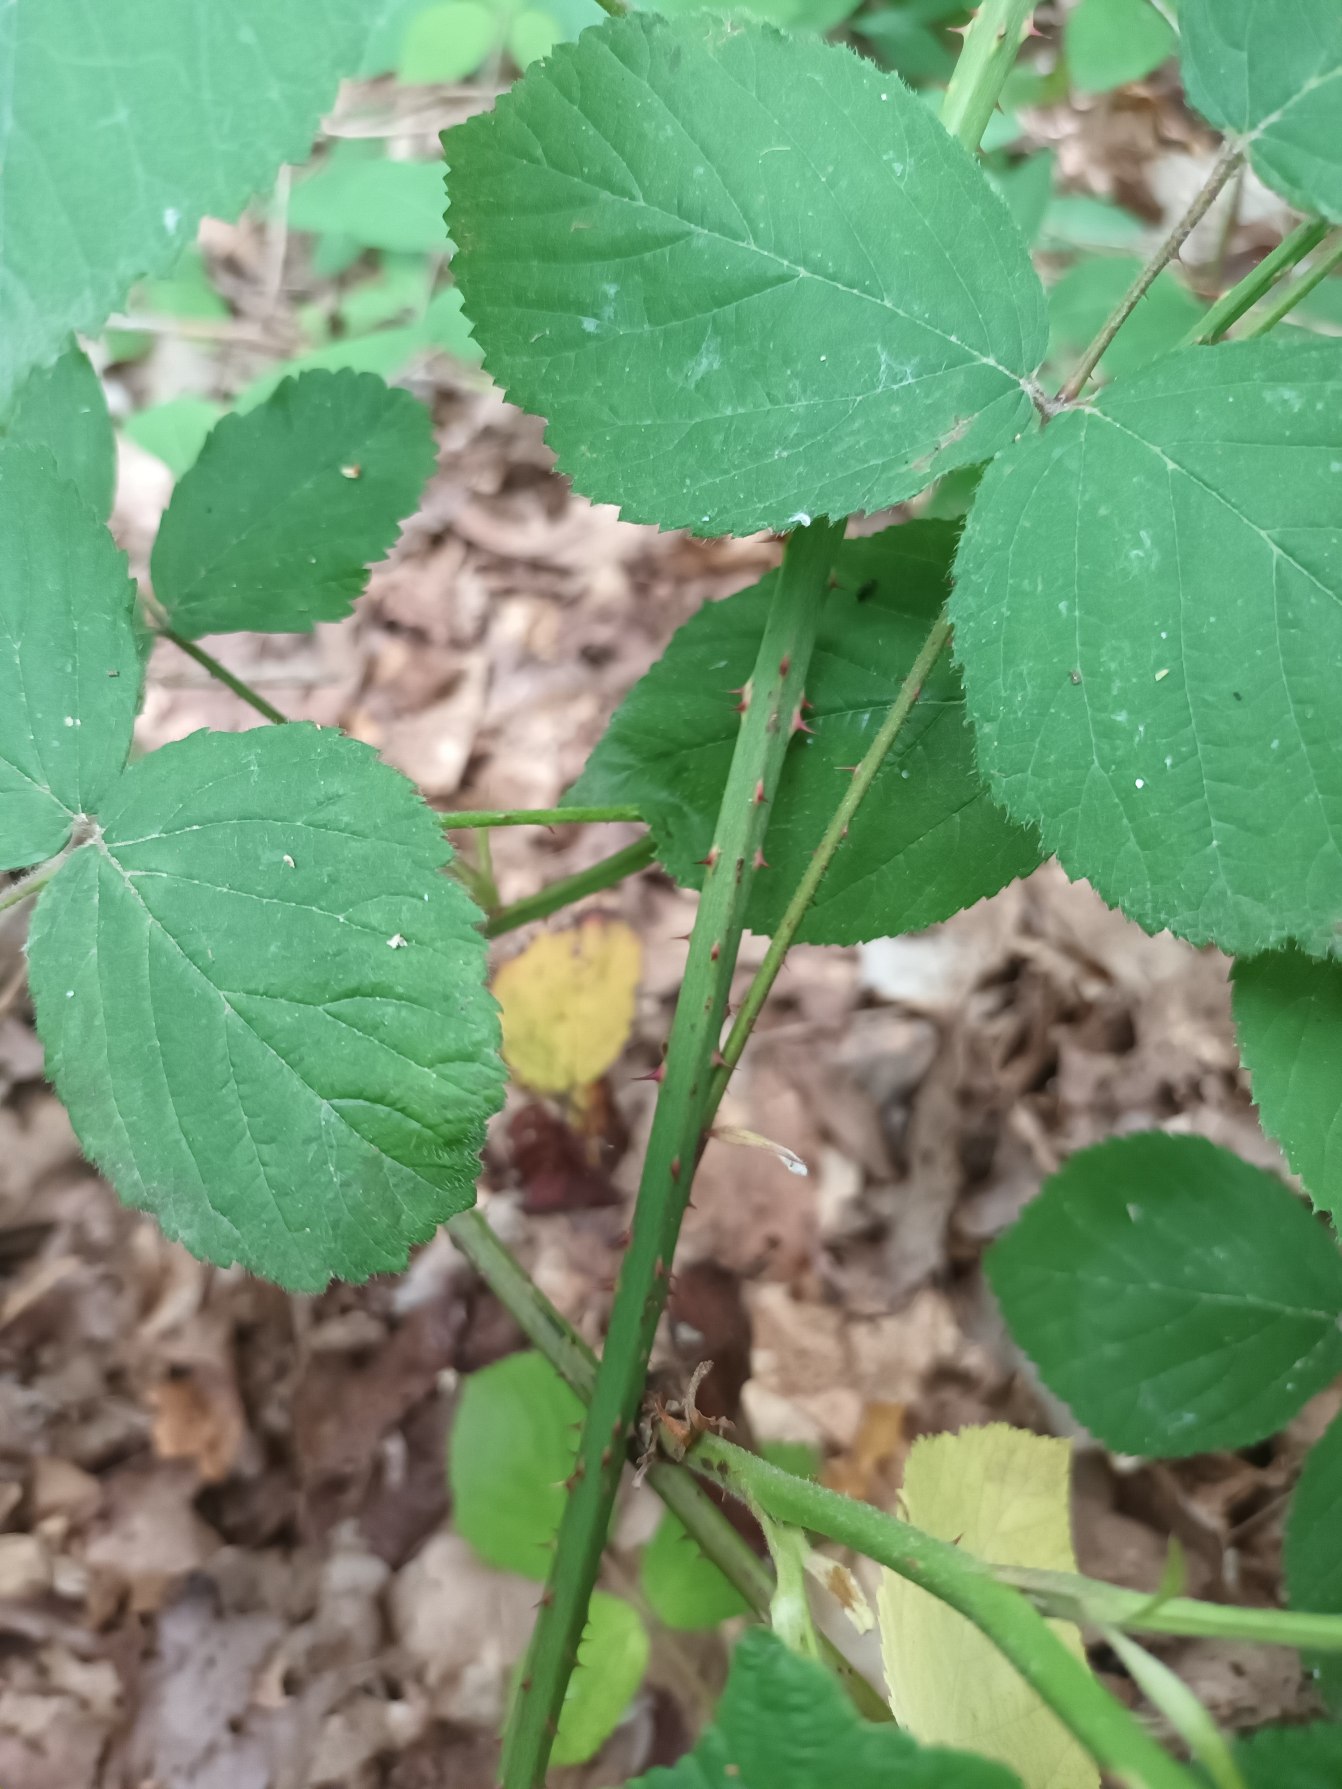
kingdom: Plantae
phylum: Tracheophyta
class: Magnoliopsida
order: Rosales
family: Rosaceae
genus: Rubus
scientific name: Rubus egregius
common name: Pragt-brombær
